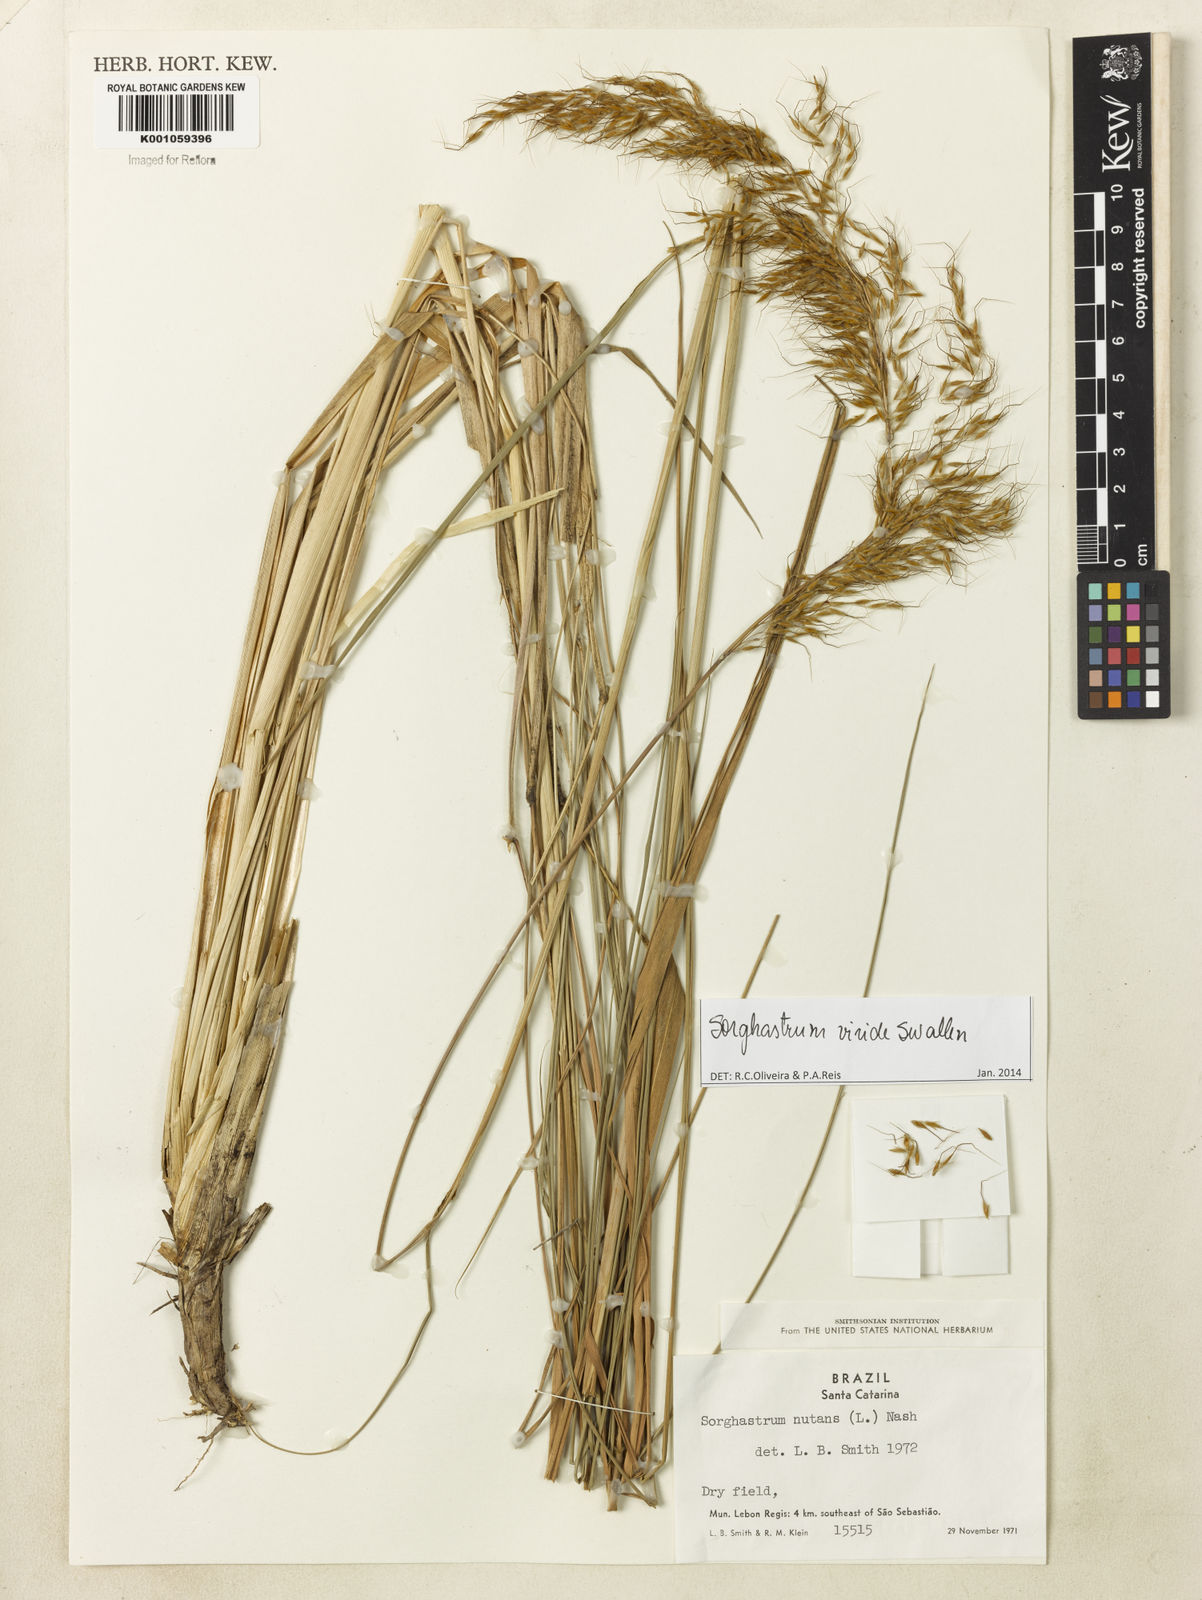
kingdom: Plantae
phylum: Tracheophyta
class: Liliopsida
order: Poales
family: Poaceae
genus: Sorghastrum
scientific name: Sorghastrum viride
